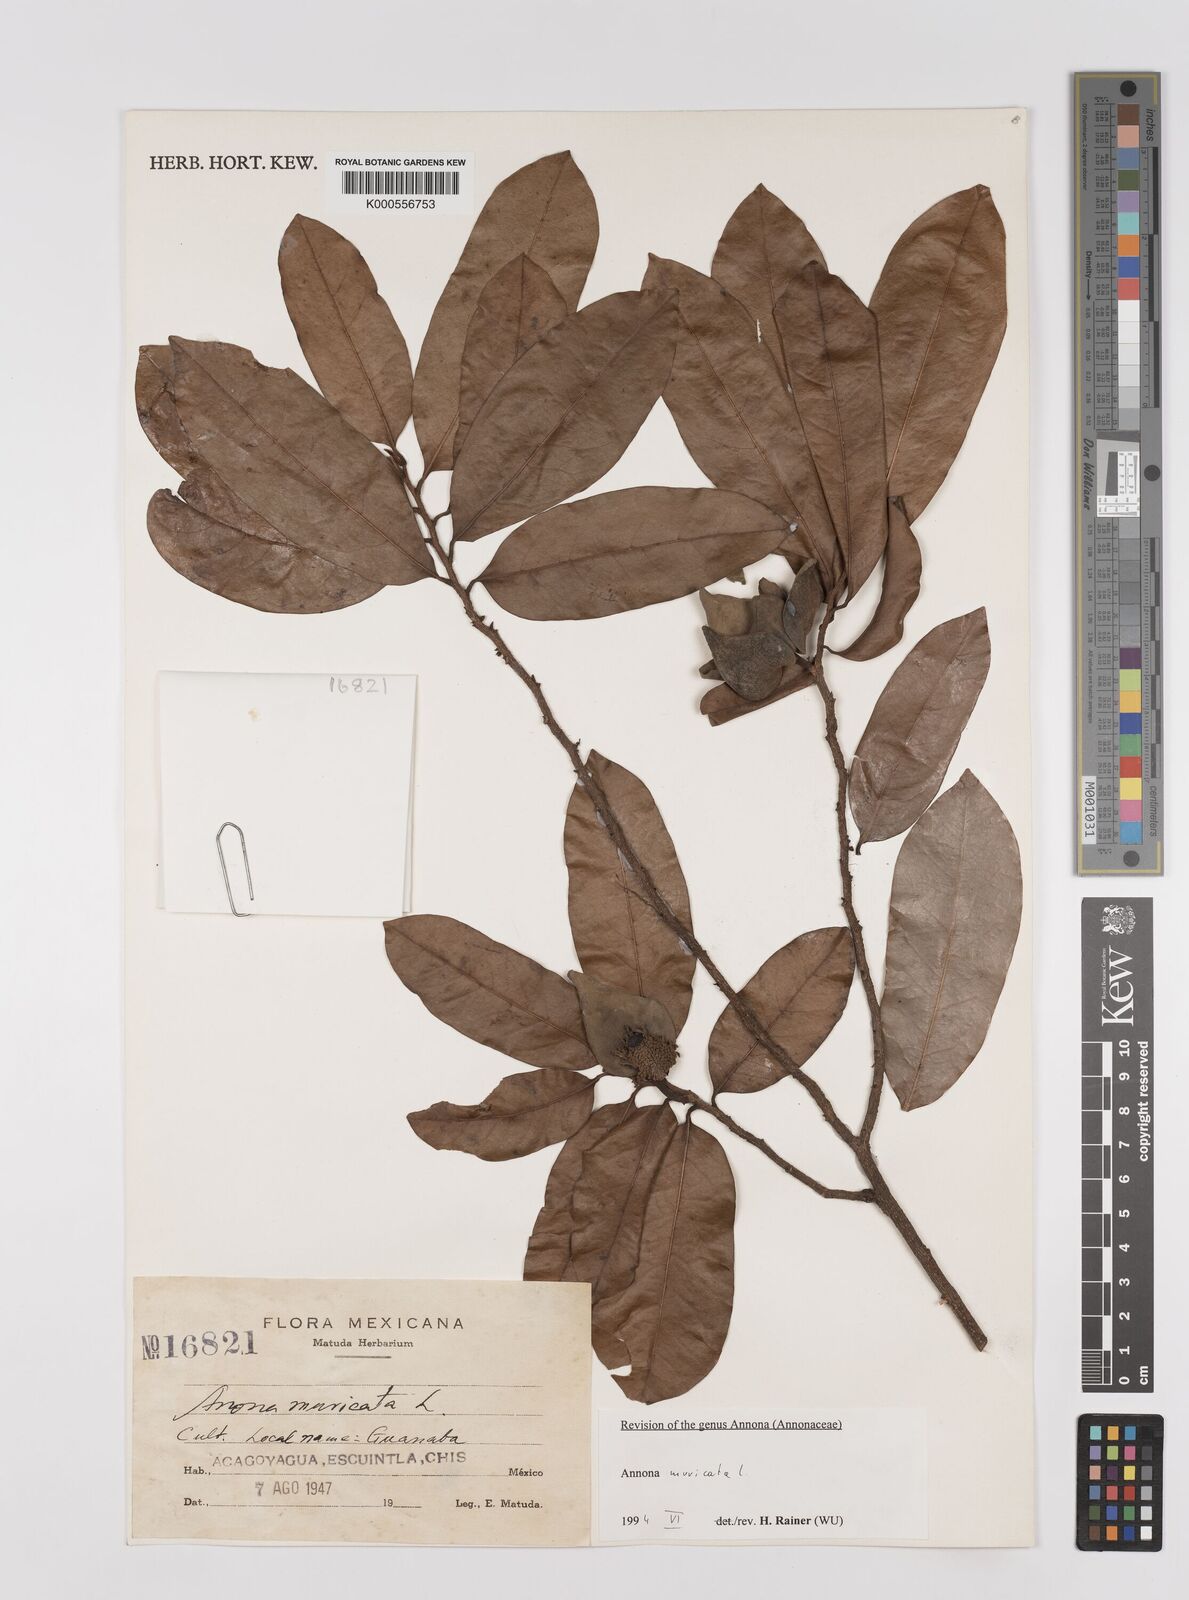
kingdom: Plantae
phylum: Tracheophyta
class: Magnoliopsida
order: Magnoliales
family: Annonaceae
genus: Annona
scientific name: Annona muricata
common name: Soursop
